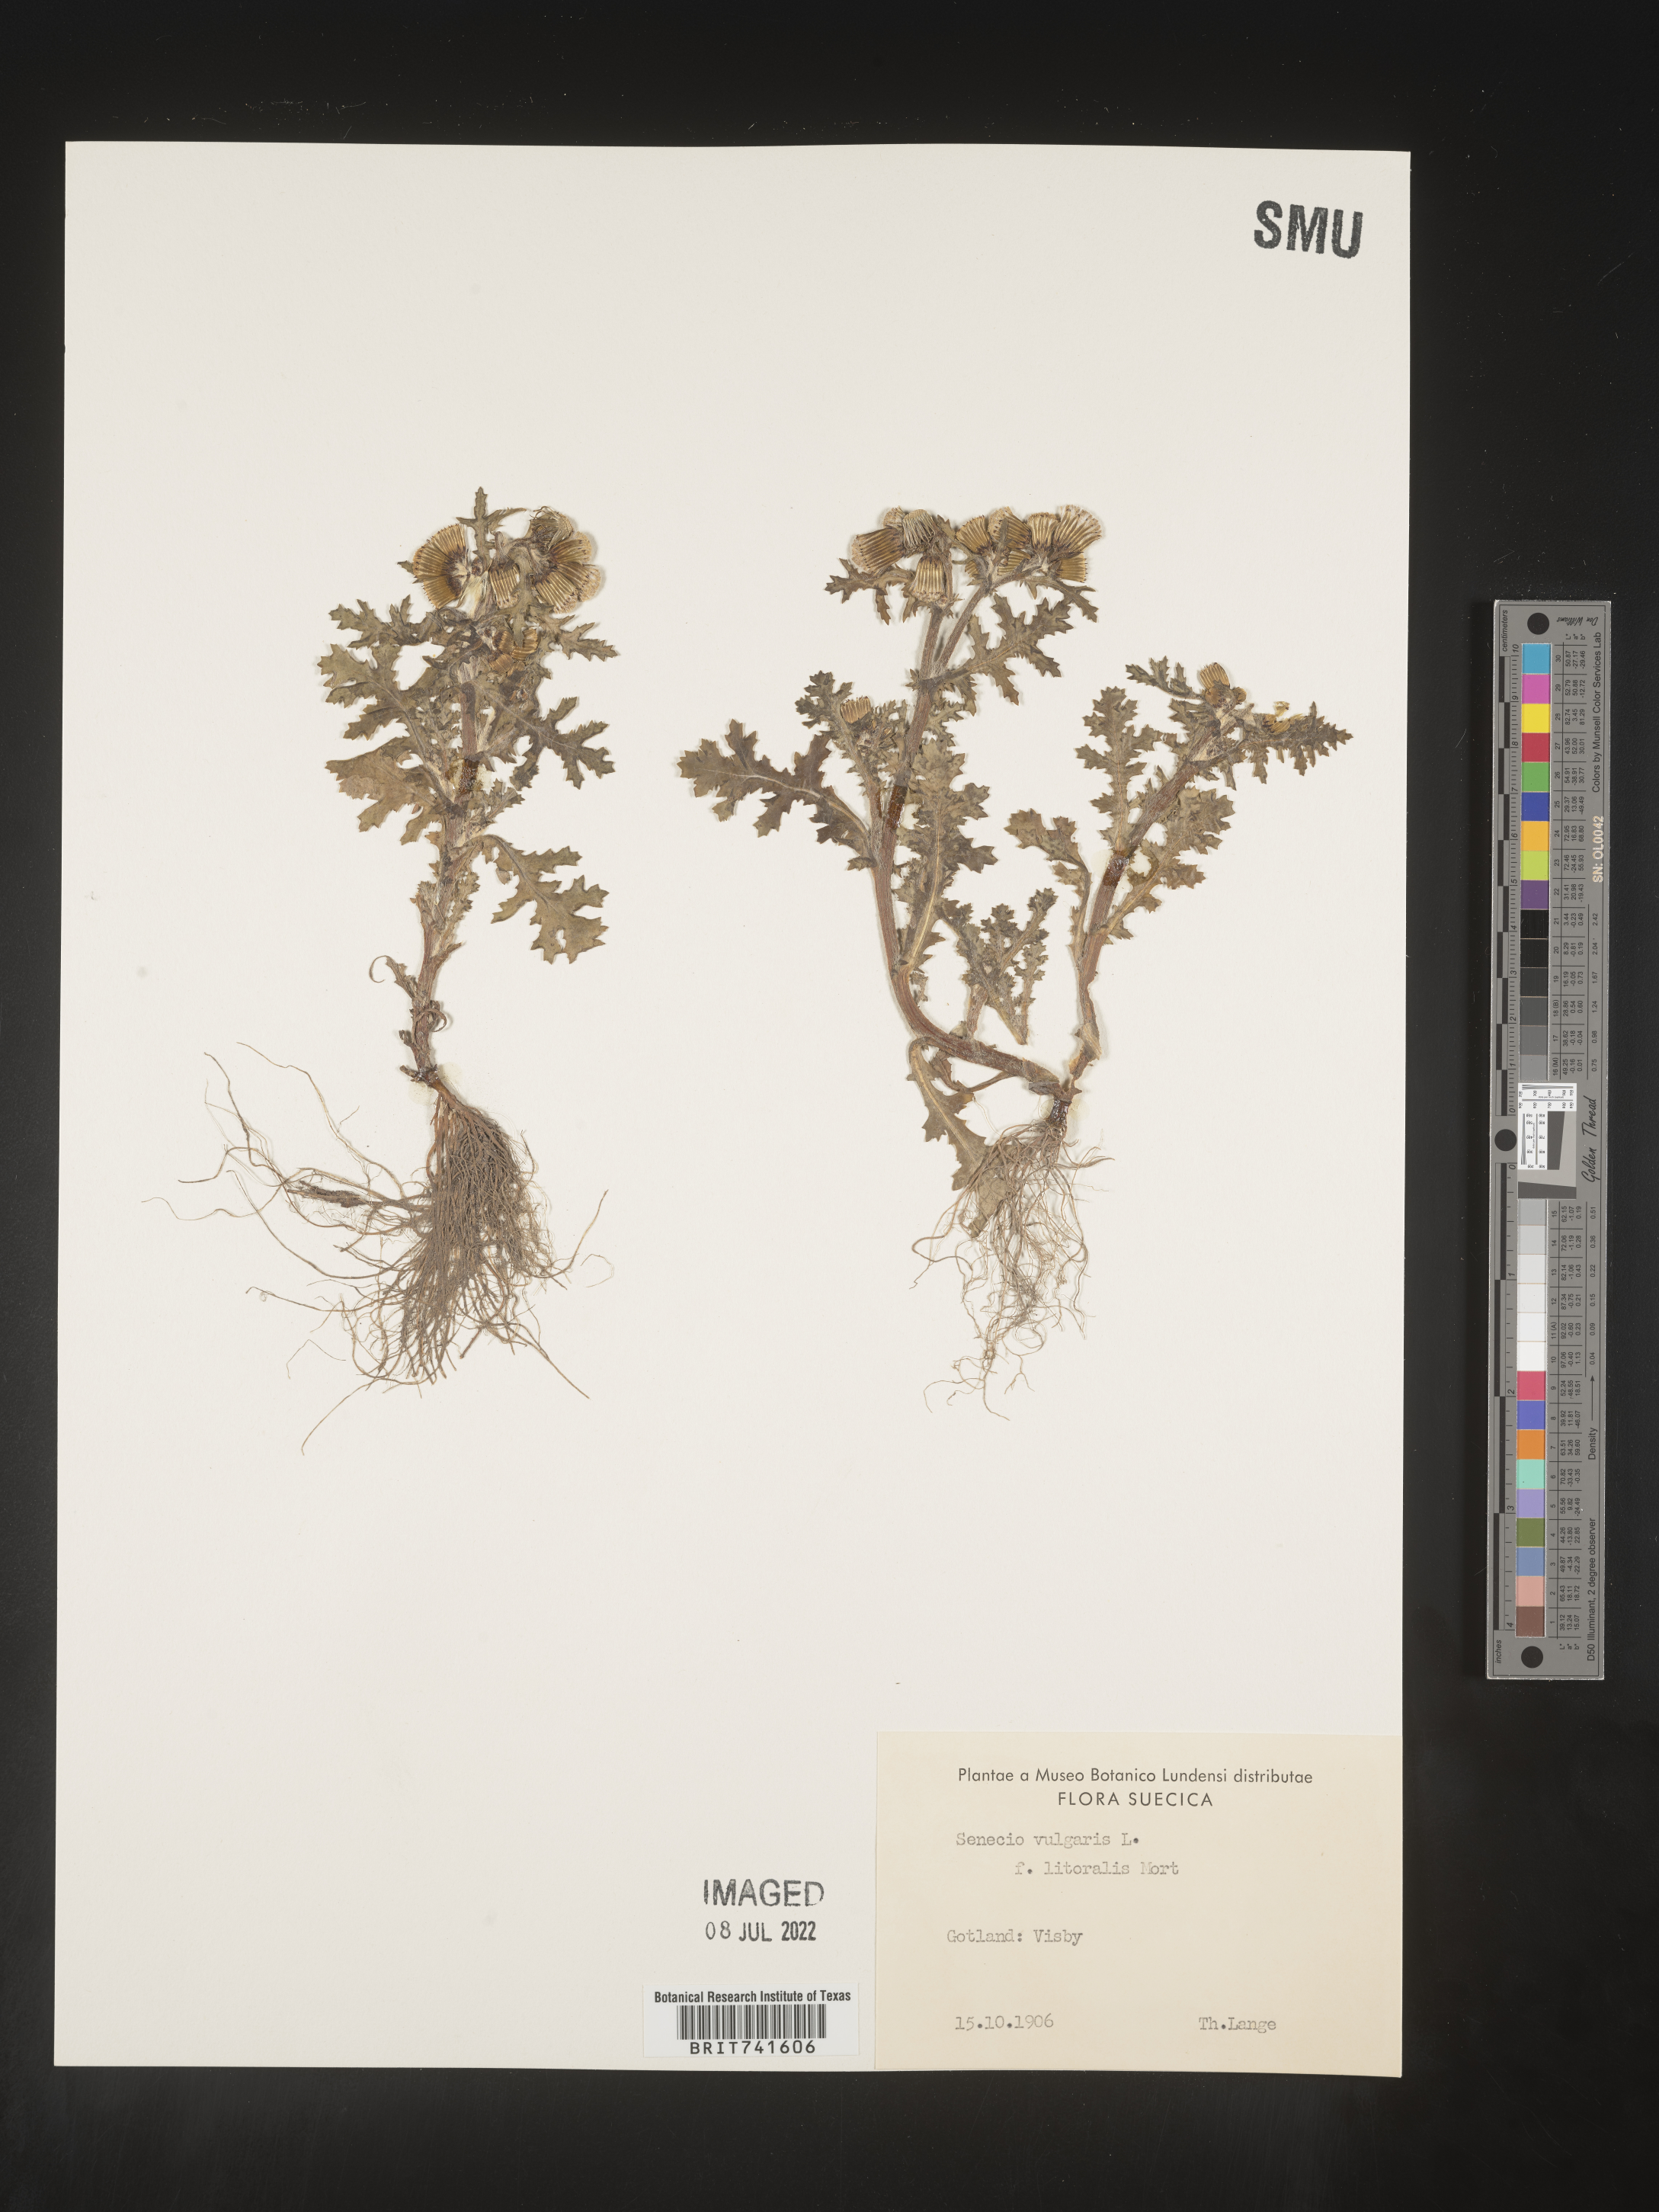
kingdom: Plantae
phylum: Tracheophyta
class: Magnoliopsida
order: Asterales
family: Asteraceae
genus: Senecio
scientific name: Senecio
